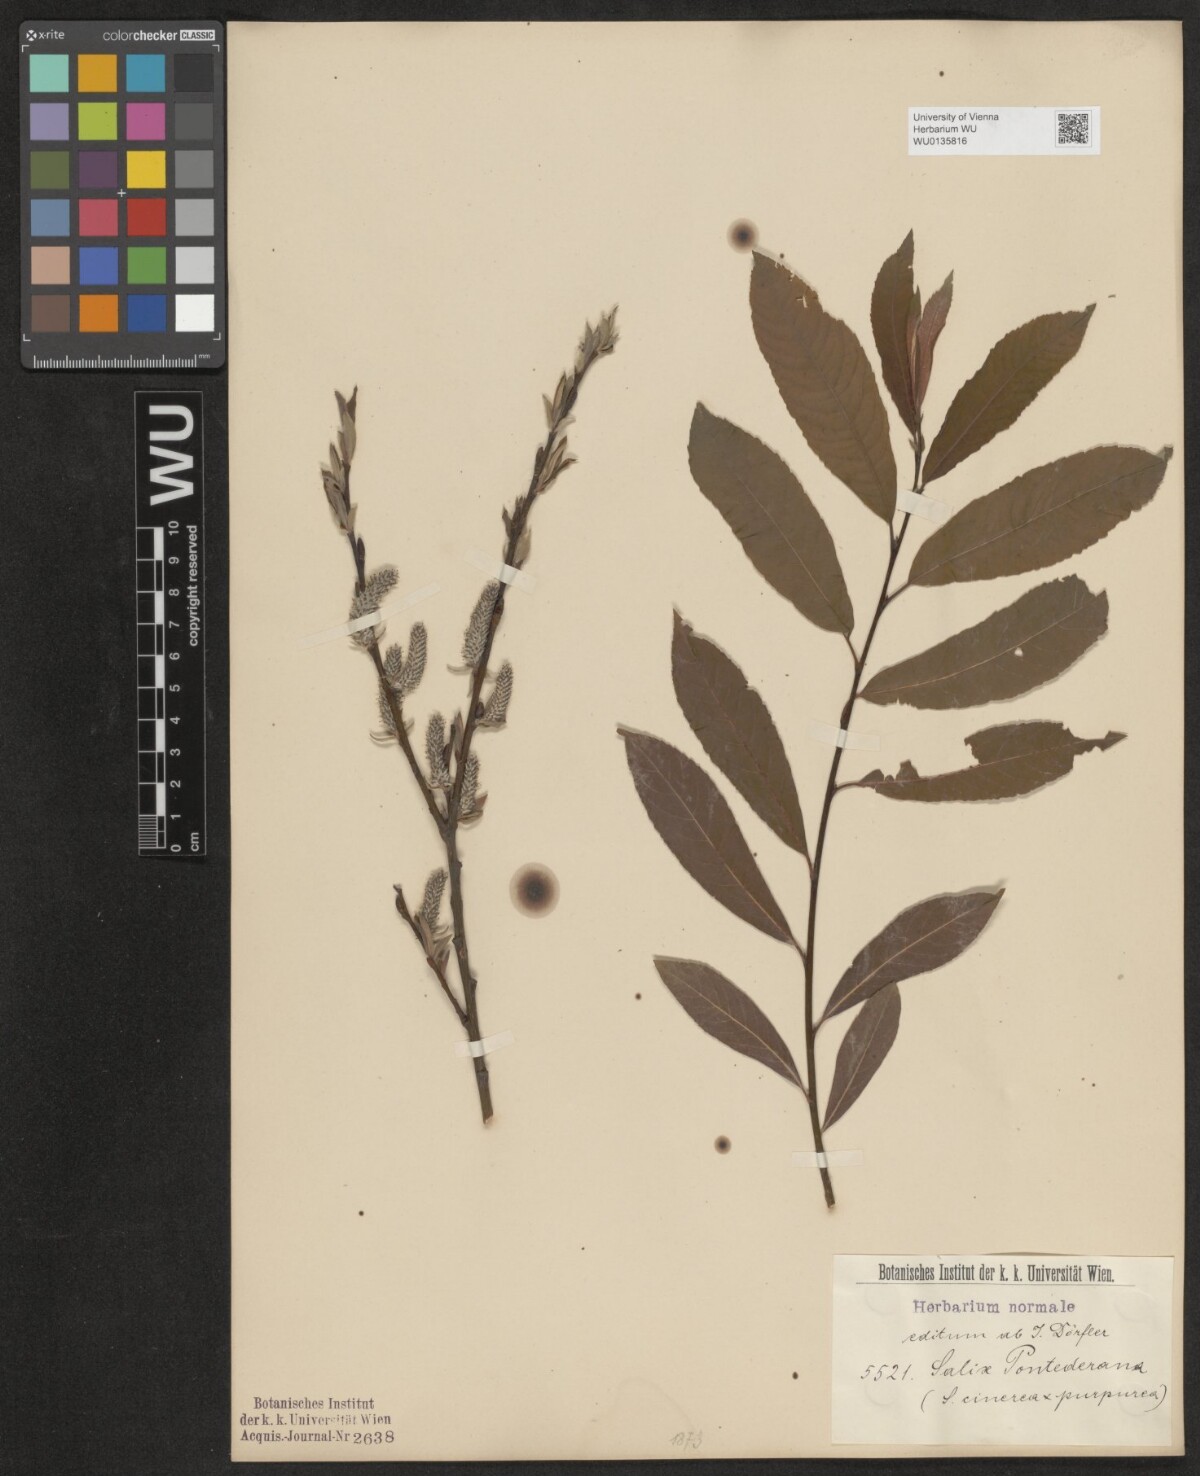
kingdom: Plantae
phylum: Tracheophyta
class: Magnoliopsida
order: Malpighiales
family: Salicaceae
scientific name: Salicaceae
